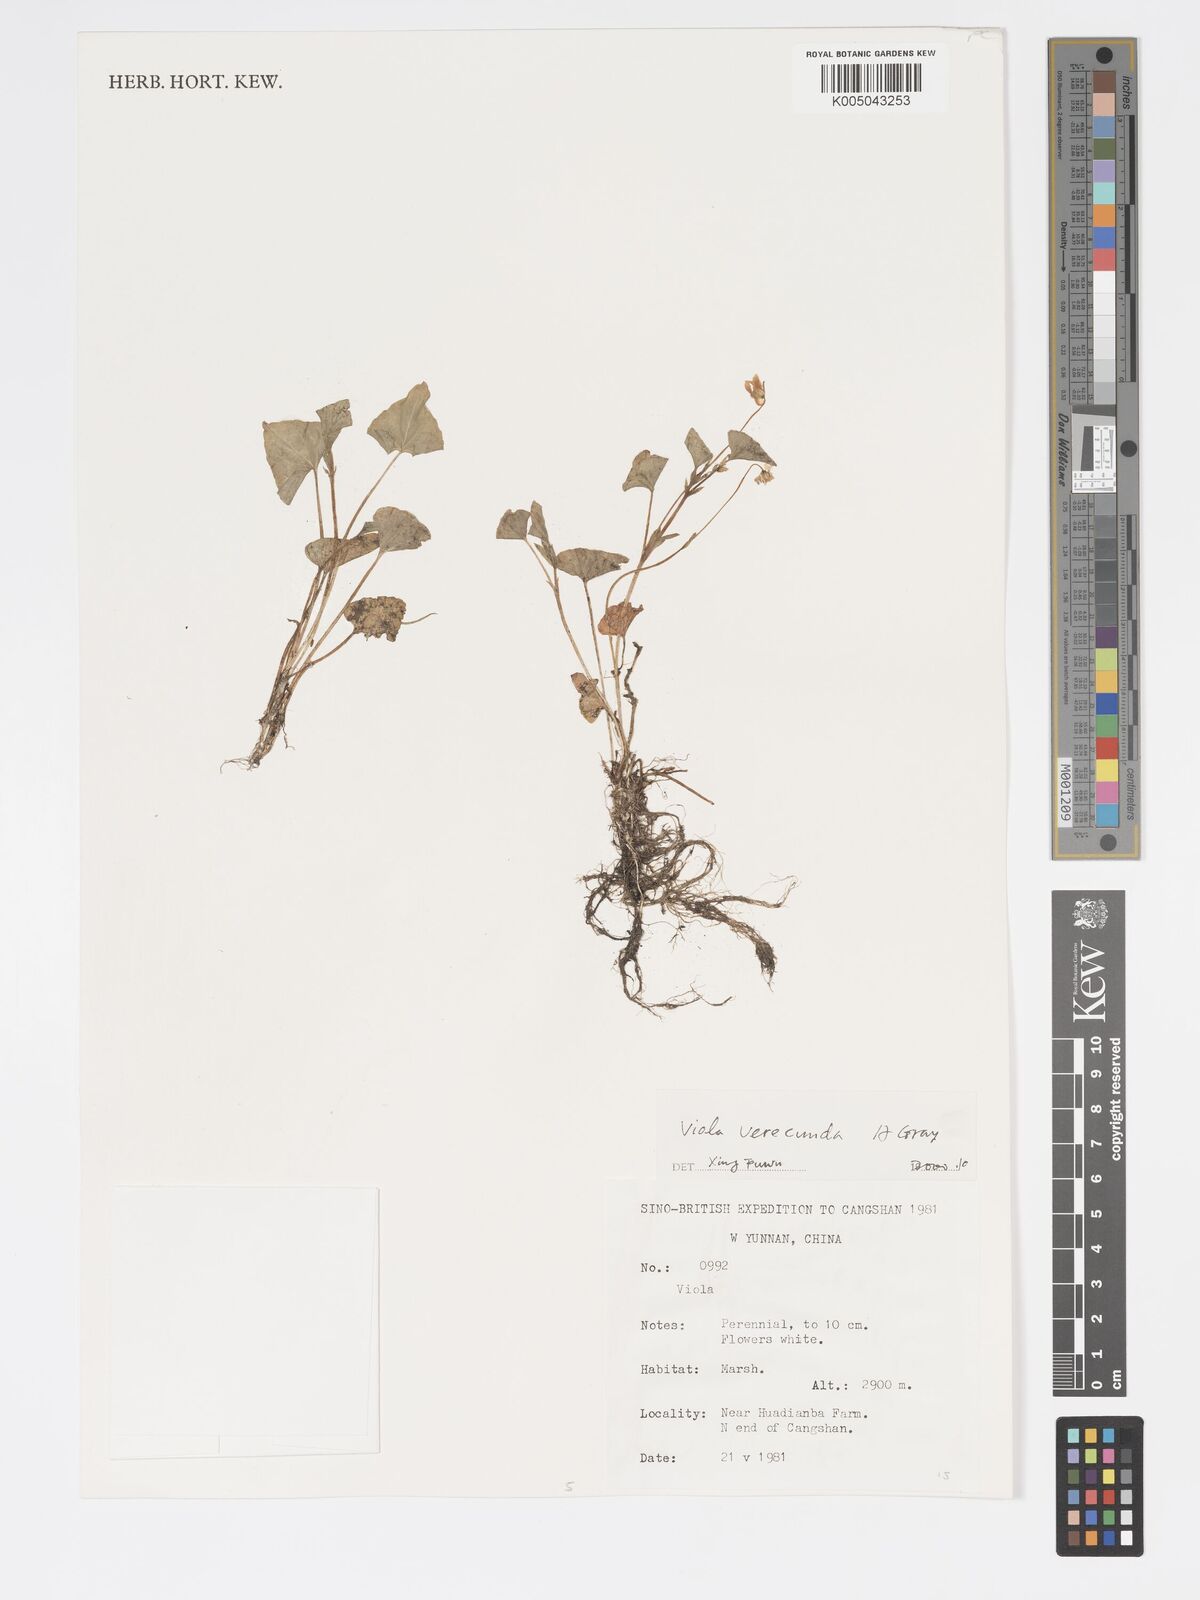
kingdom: Plantae
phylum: Tracheophyta
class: Magnoliopsida
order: Malpighiales
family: Violaceae
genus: Viola
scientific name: Viola hamiltoniana
